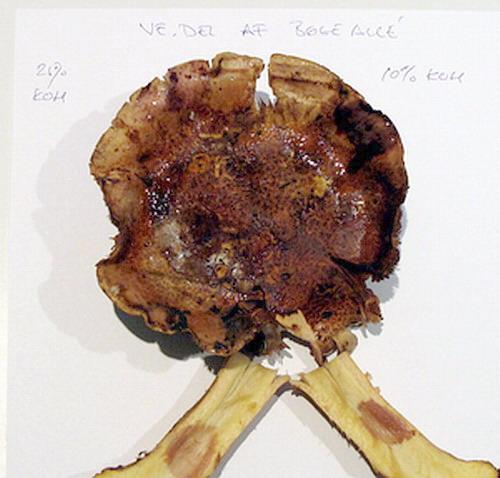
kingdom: Fungi
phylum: Basidiomycota
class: Agaricomycetes
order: Agaricales
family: Cortinariaceae
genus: Calonarius
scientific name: Calonarius alcalinophilus
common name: gyldenbrun slørhat
